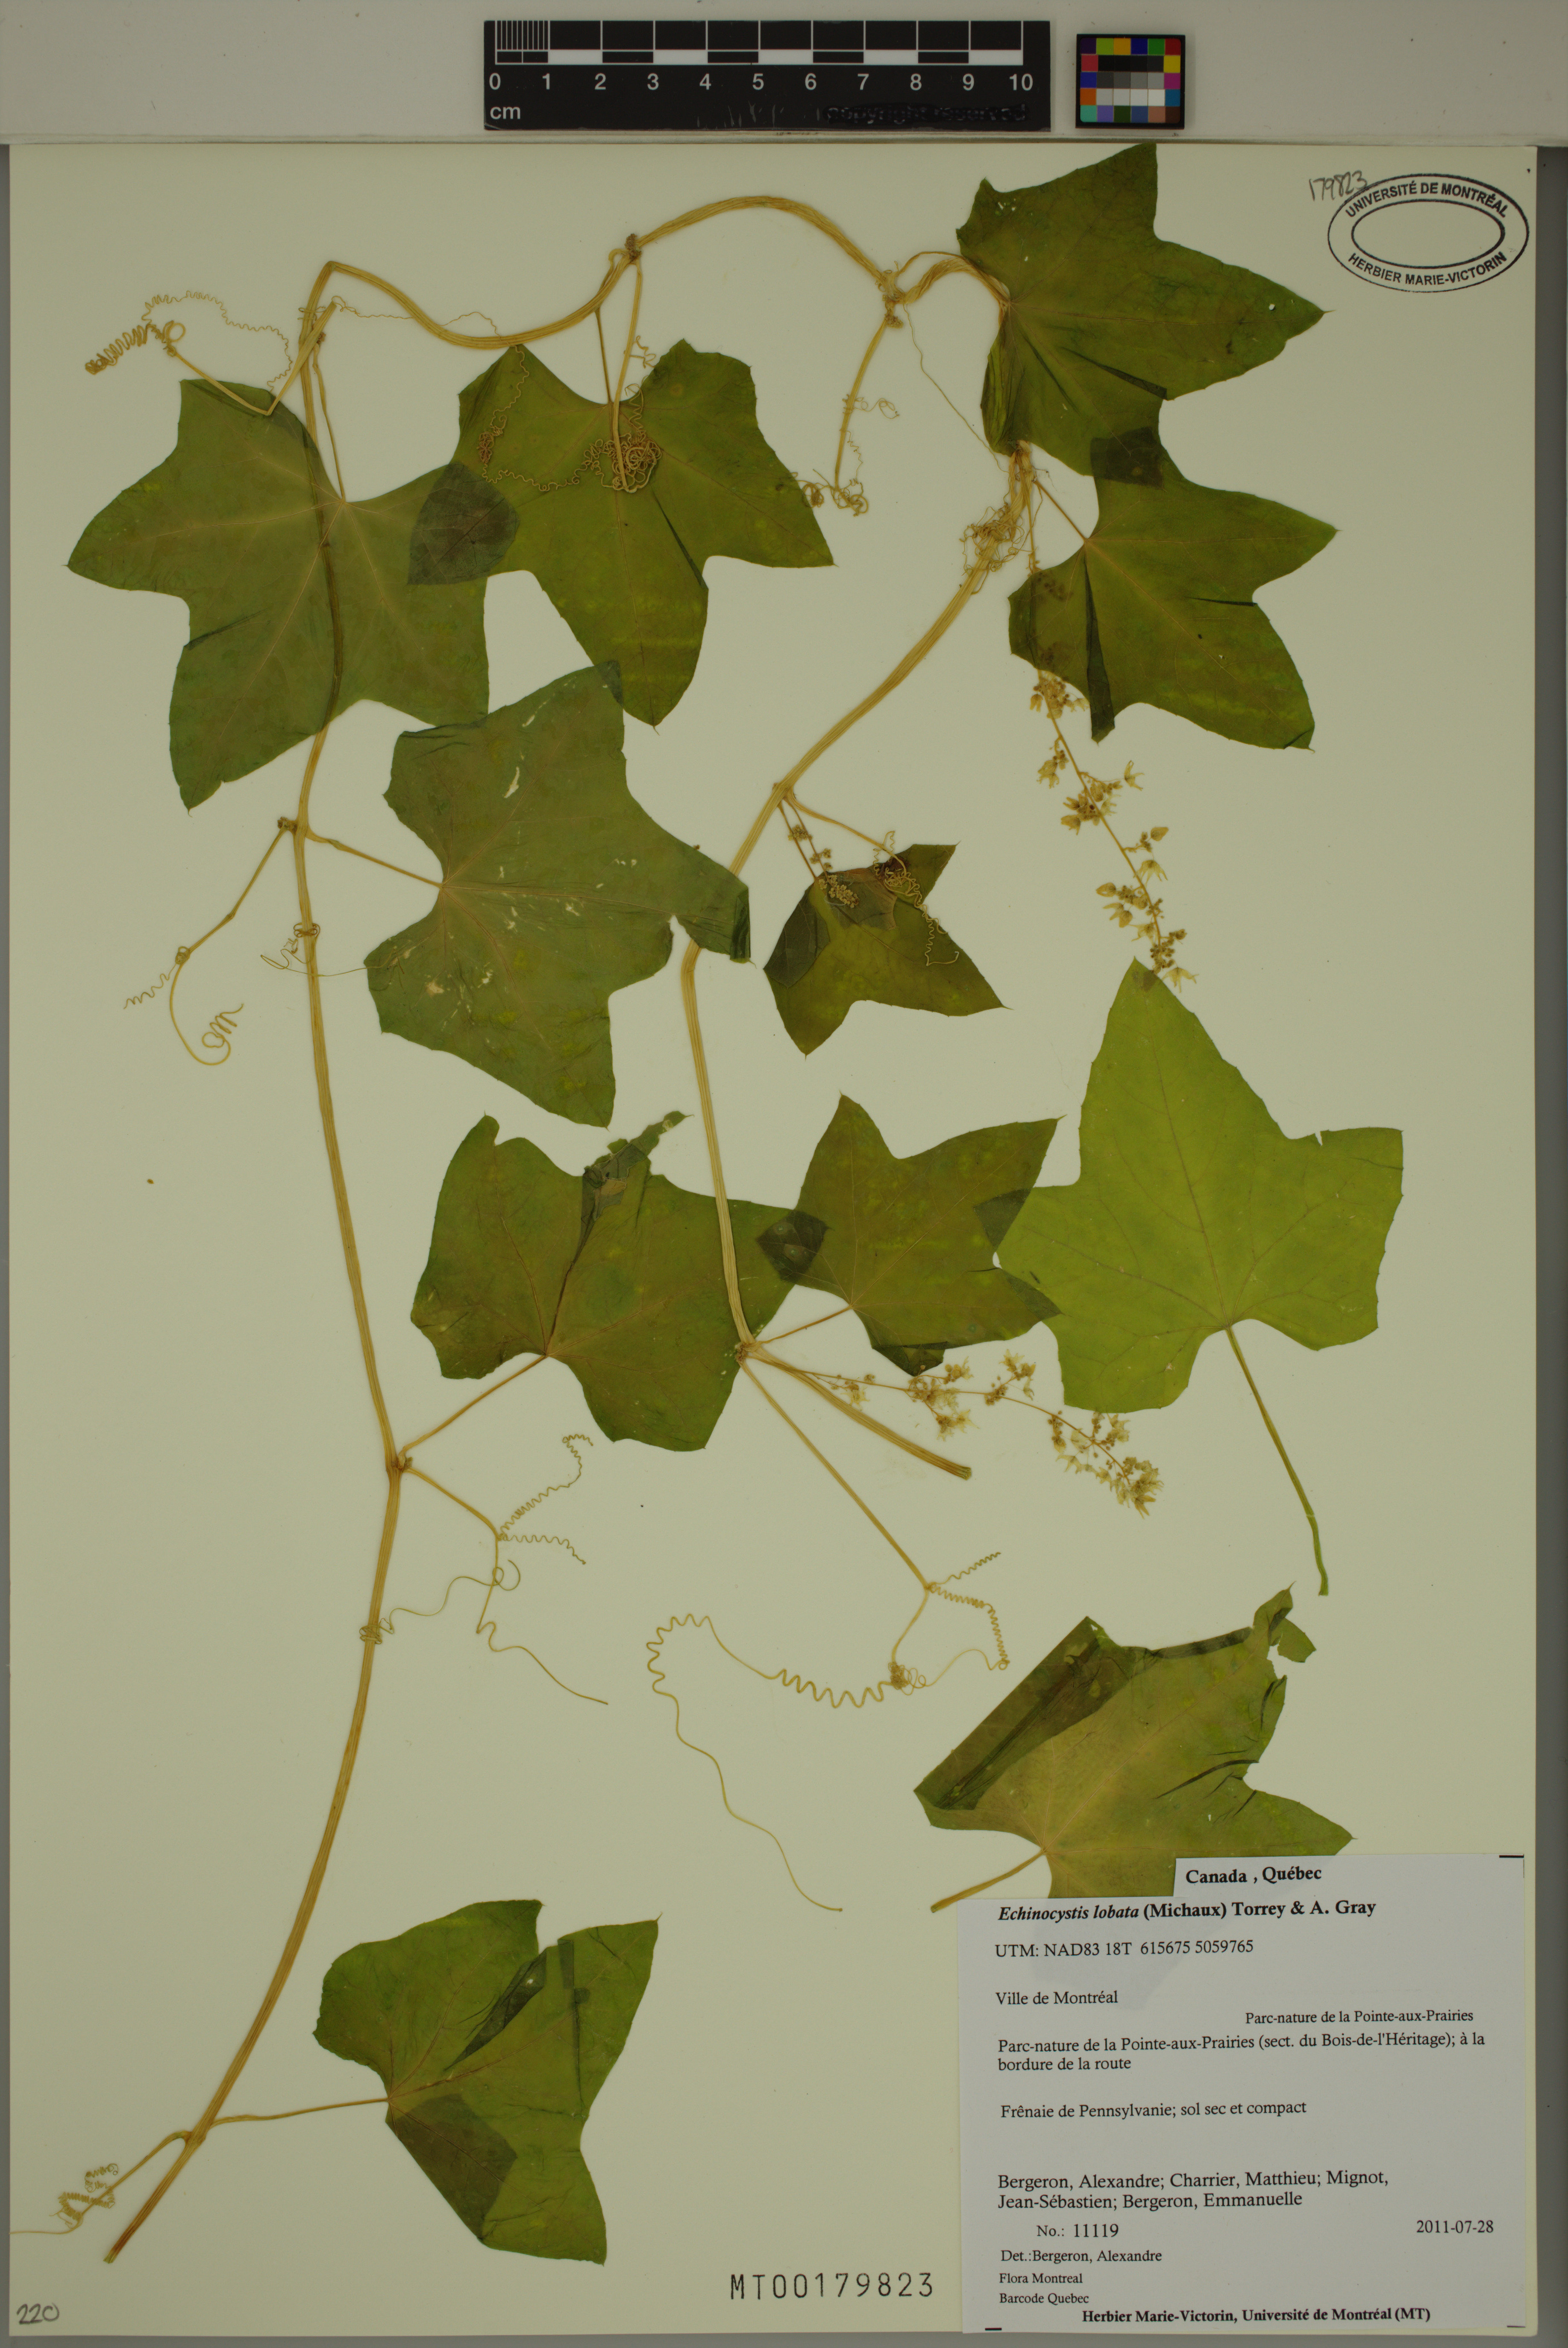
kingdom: Plantae
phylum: Tracheophyta
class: Magnoliopsida
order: Cucurbitales
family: Cucurbitaceae
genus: Echinocystis
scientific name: Echinocystis lobata
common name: Wild cucumber
